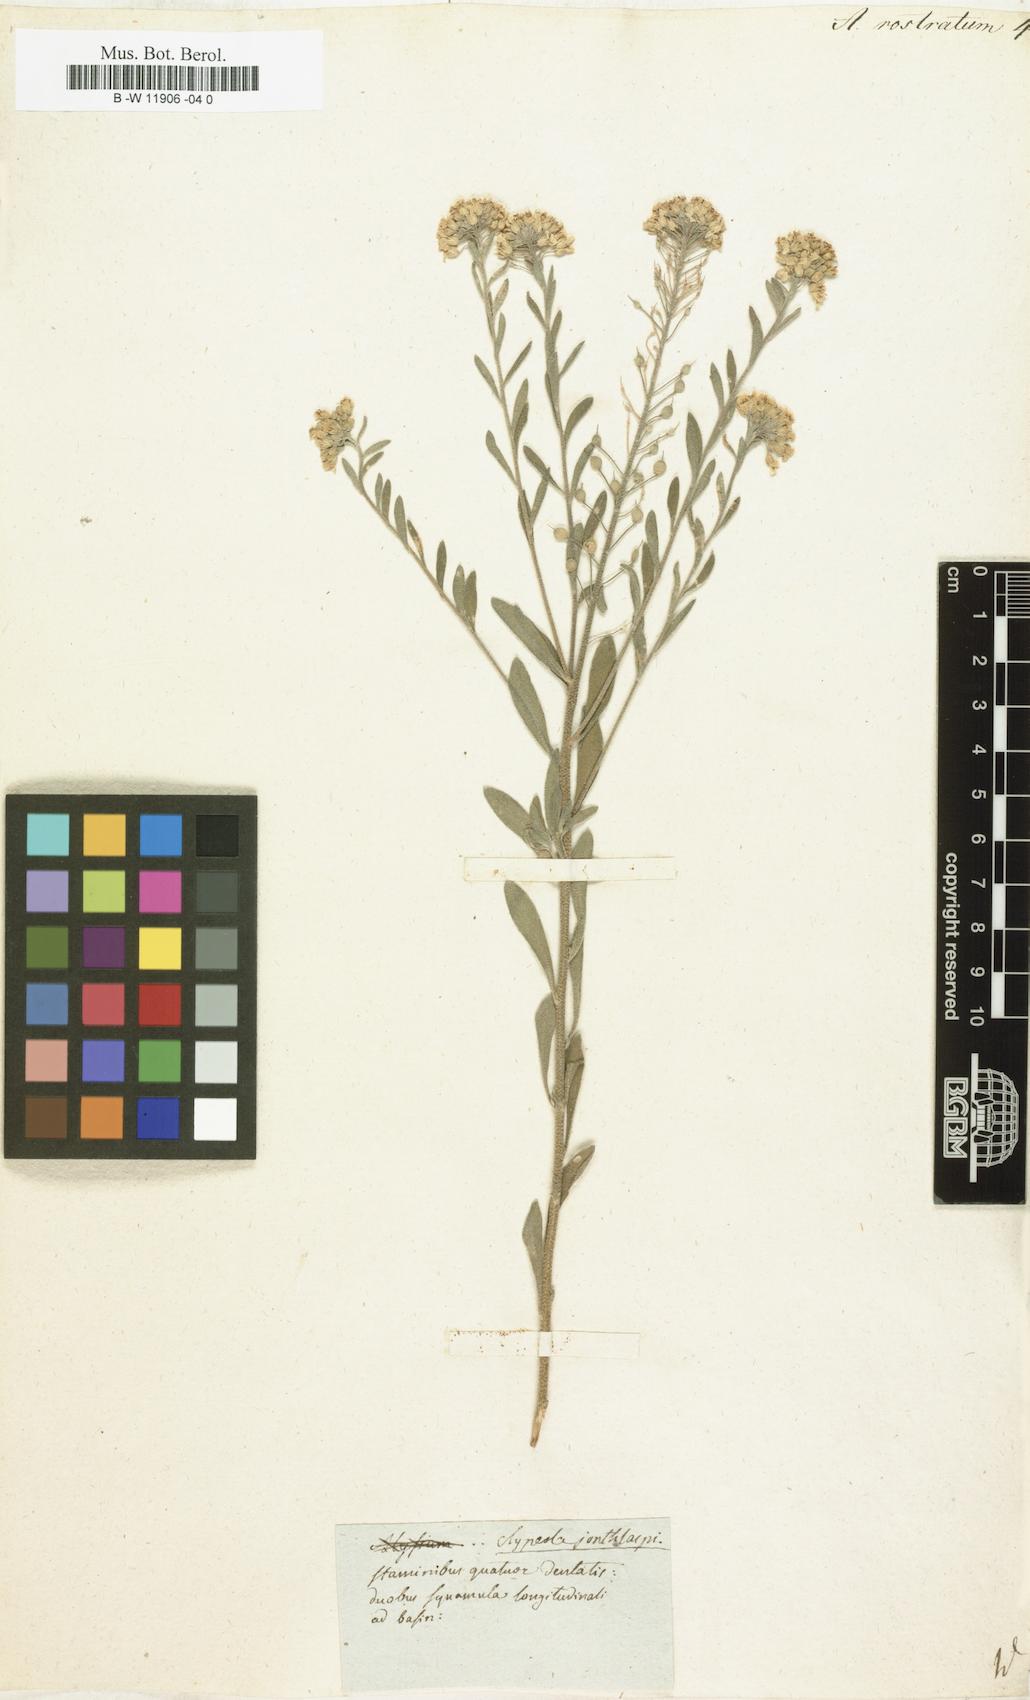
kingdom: Plantae
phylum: Tracheophyta
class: Magnoliopsida
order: Brassicales
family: Brassicaceae
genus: Alyssum
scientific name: Alyssum rostratum
